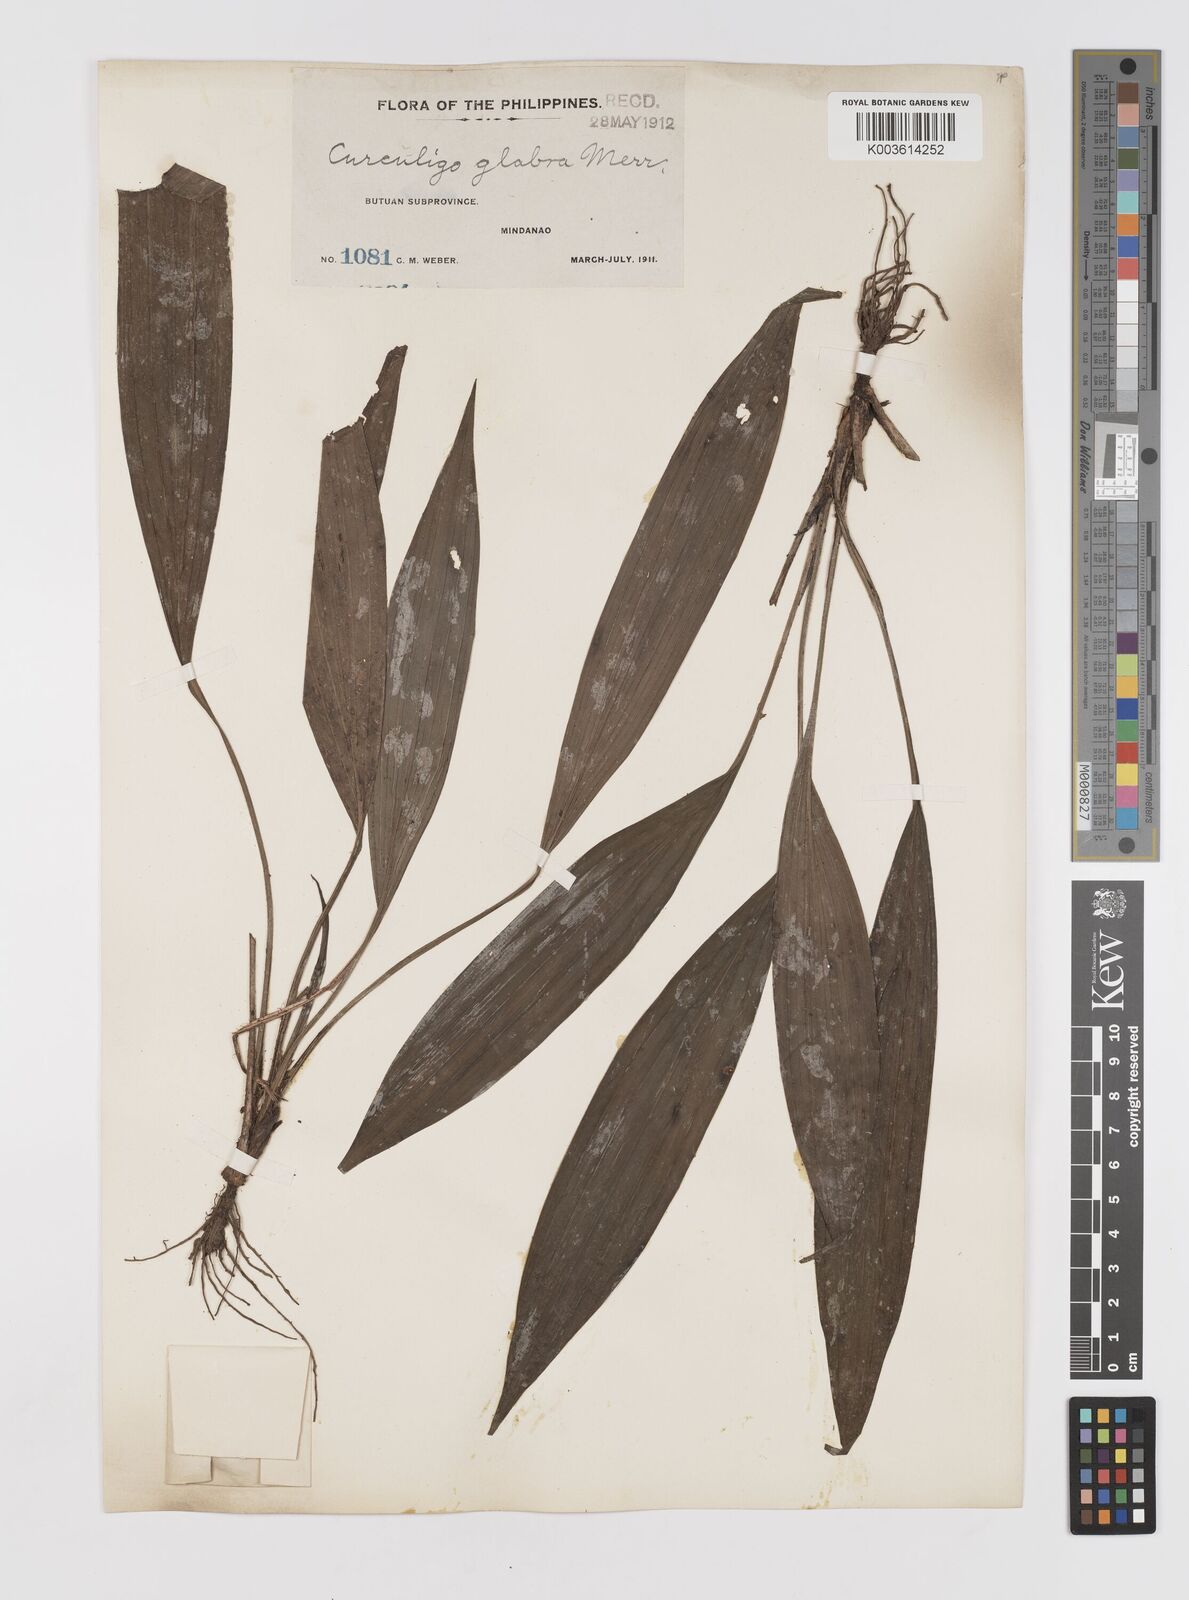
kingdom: Plantae
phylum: Tracheophyta
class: Liliopsida
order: Asparagales
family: Hypoxidaceae
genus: Curculigo
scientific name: Curculigo capitulata
